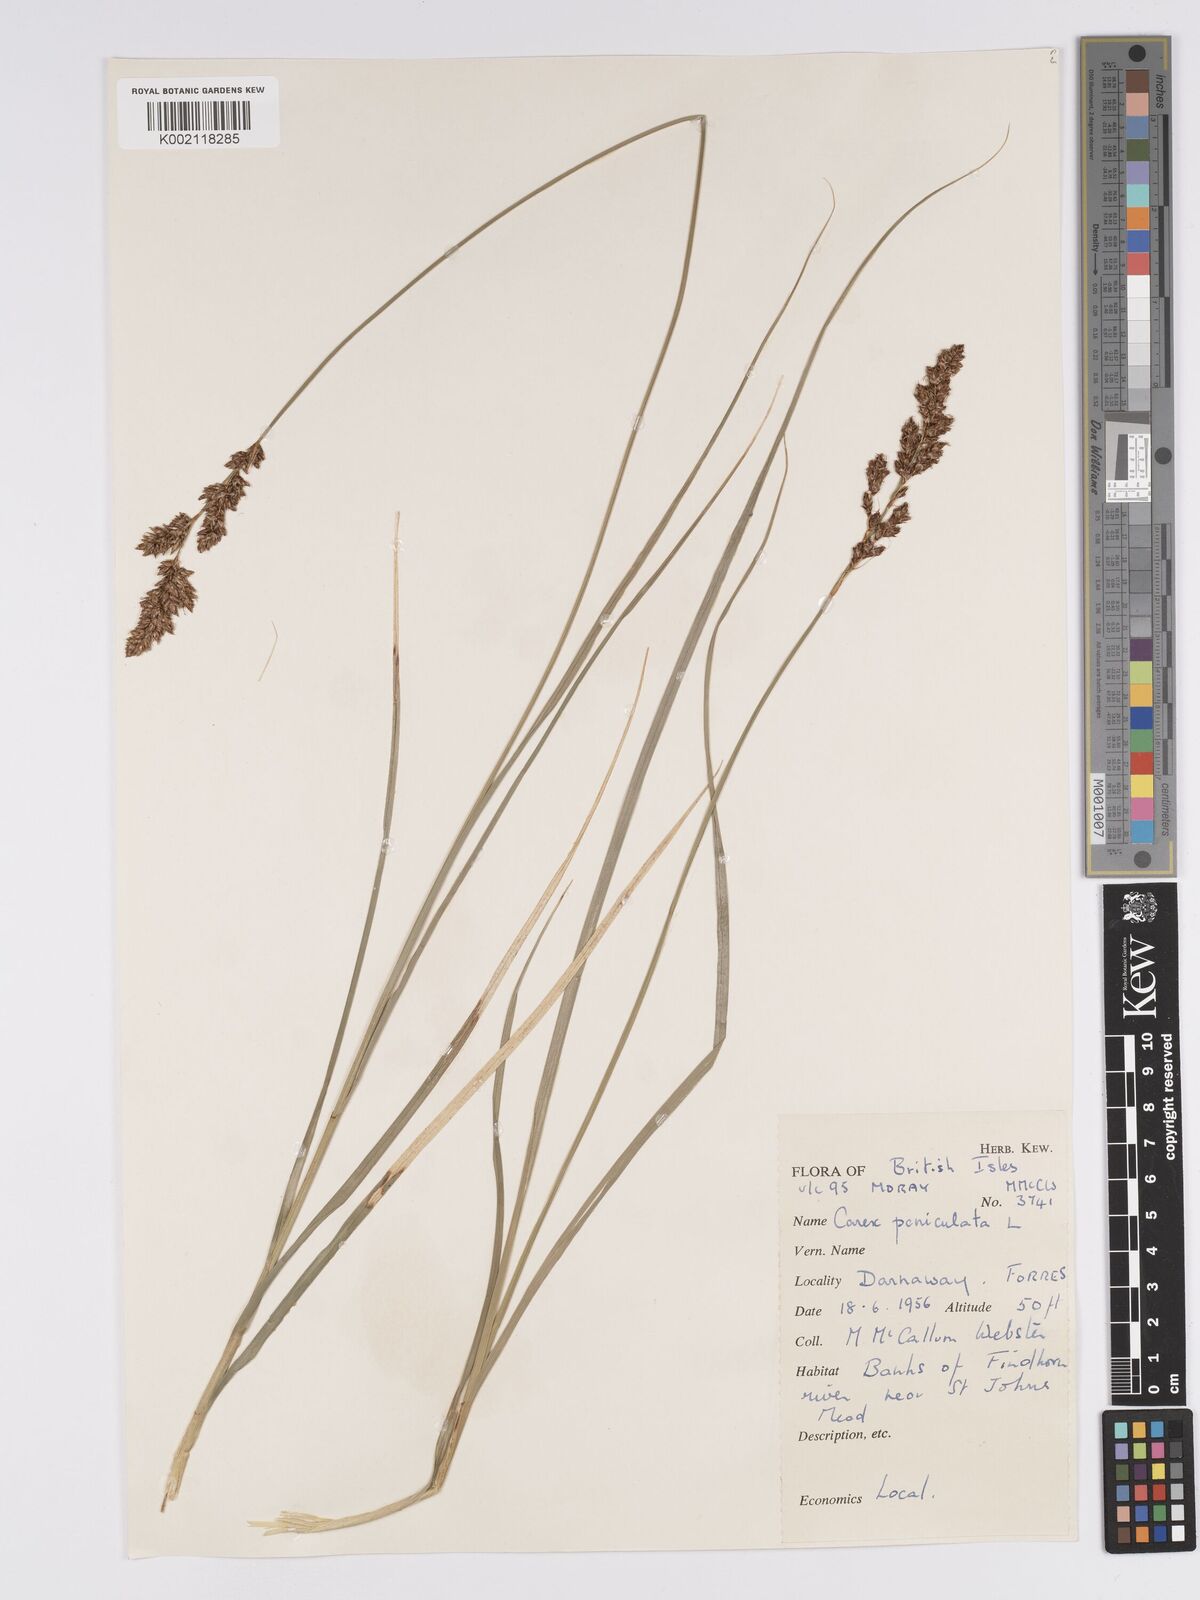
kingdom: Plantae
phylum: Tracheophyta
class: Liliopsida
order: Poales
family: Cyperaceae
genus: Carex
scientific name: Carex paniculata
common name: Greater tussock-sedge
